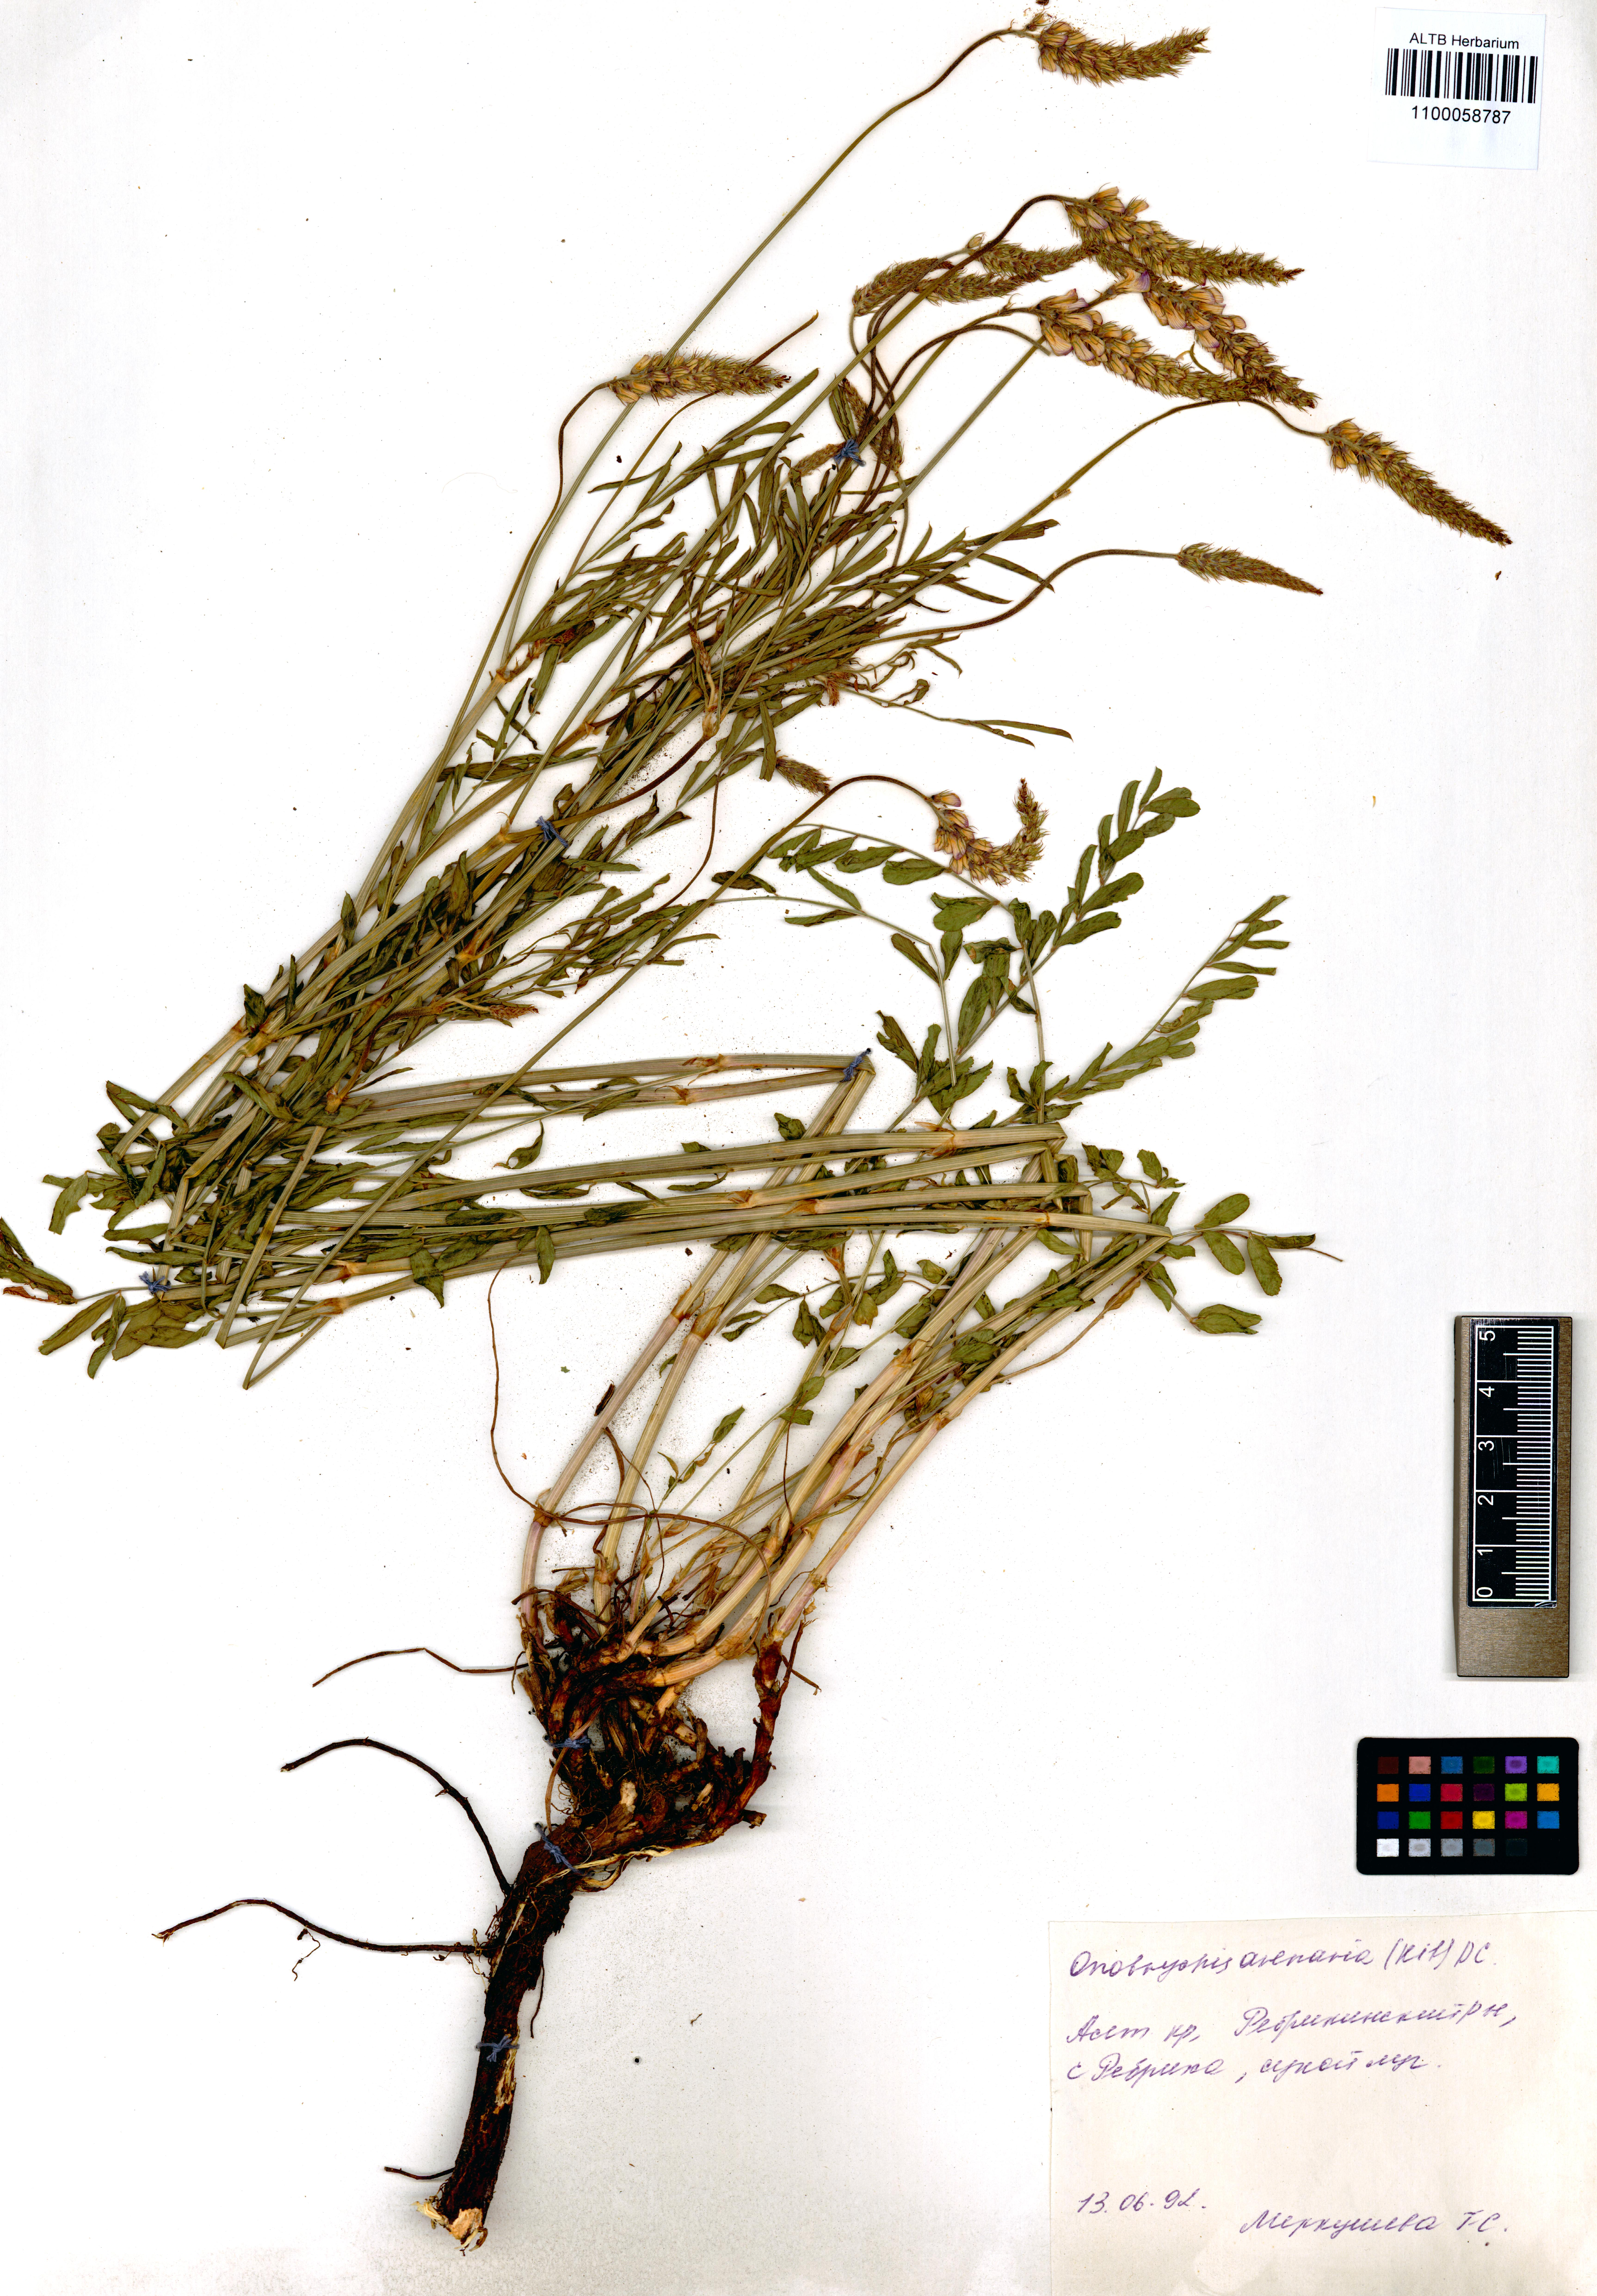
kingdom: Plantae
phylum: Tracheophyta
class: Magnoliopsida
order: Fabales
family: Fabaceae
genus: Onobrychis
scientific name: Onobrychis arenaria
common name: Sand esparcet
